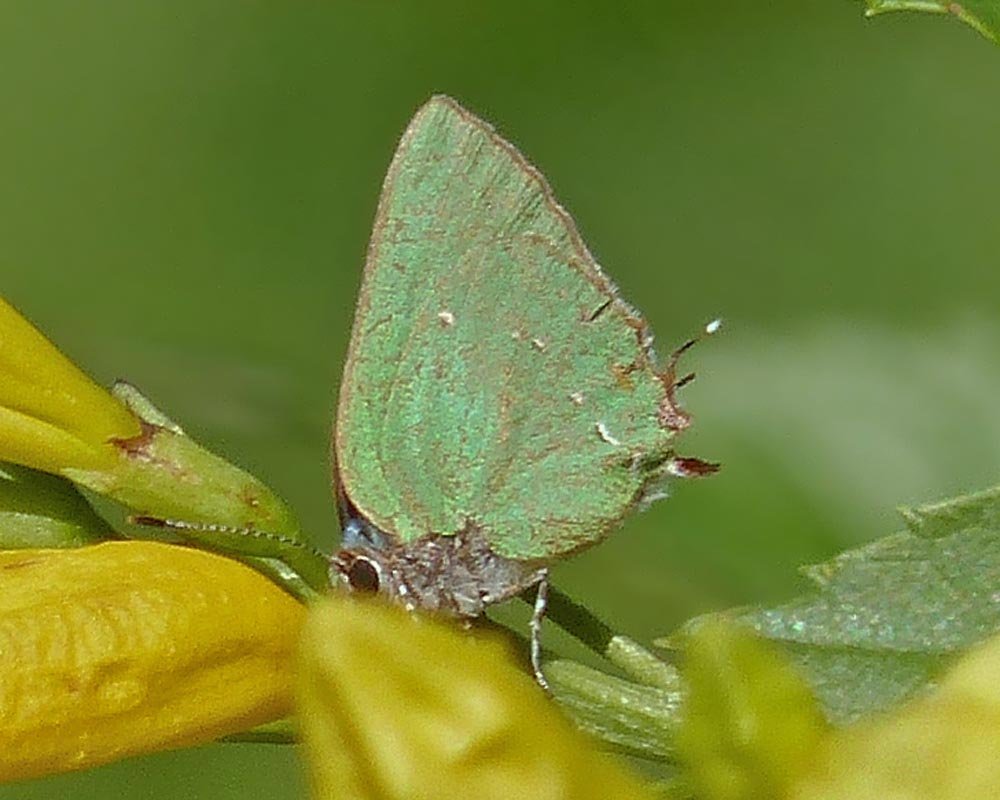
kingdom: Animalia
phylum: Arthropoda
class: Insecta
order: Lepidoptera
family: Lycaenidae
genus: Thecla
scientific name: Thecla herodotus
